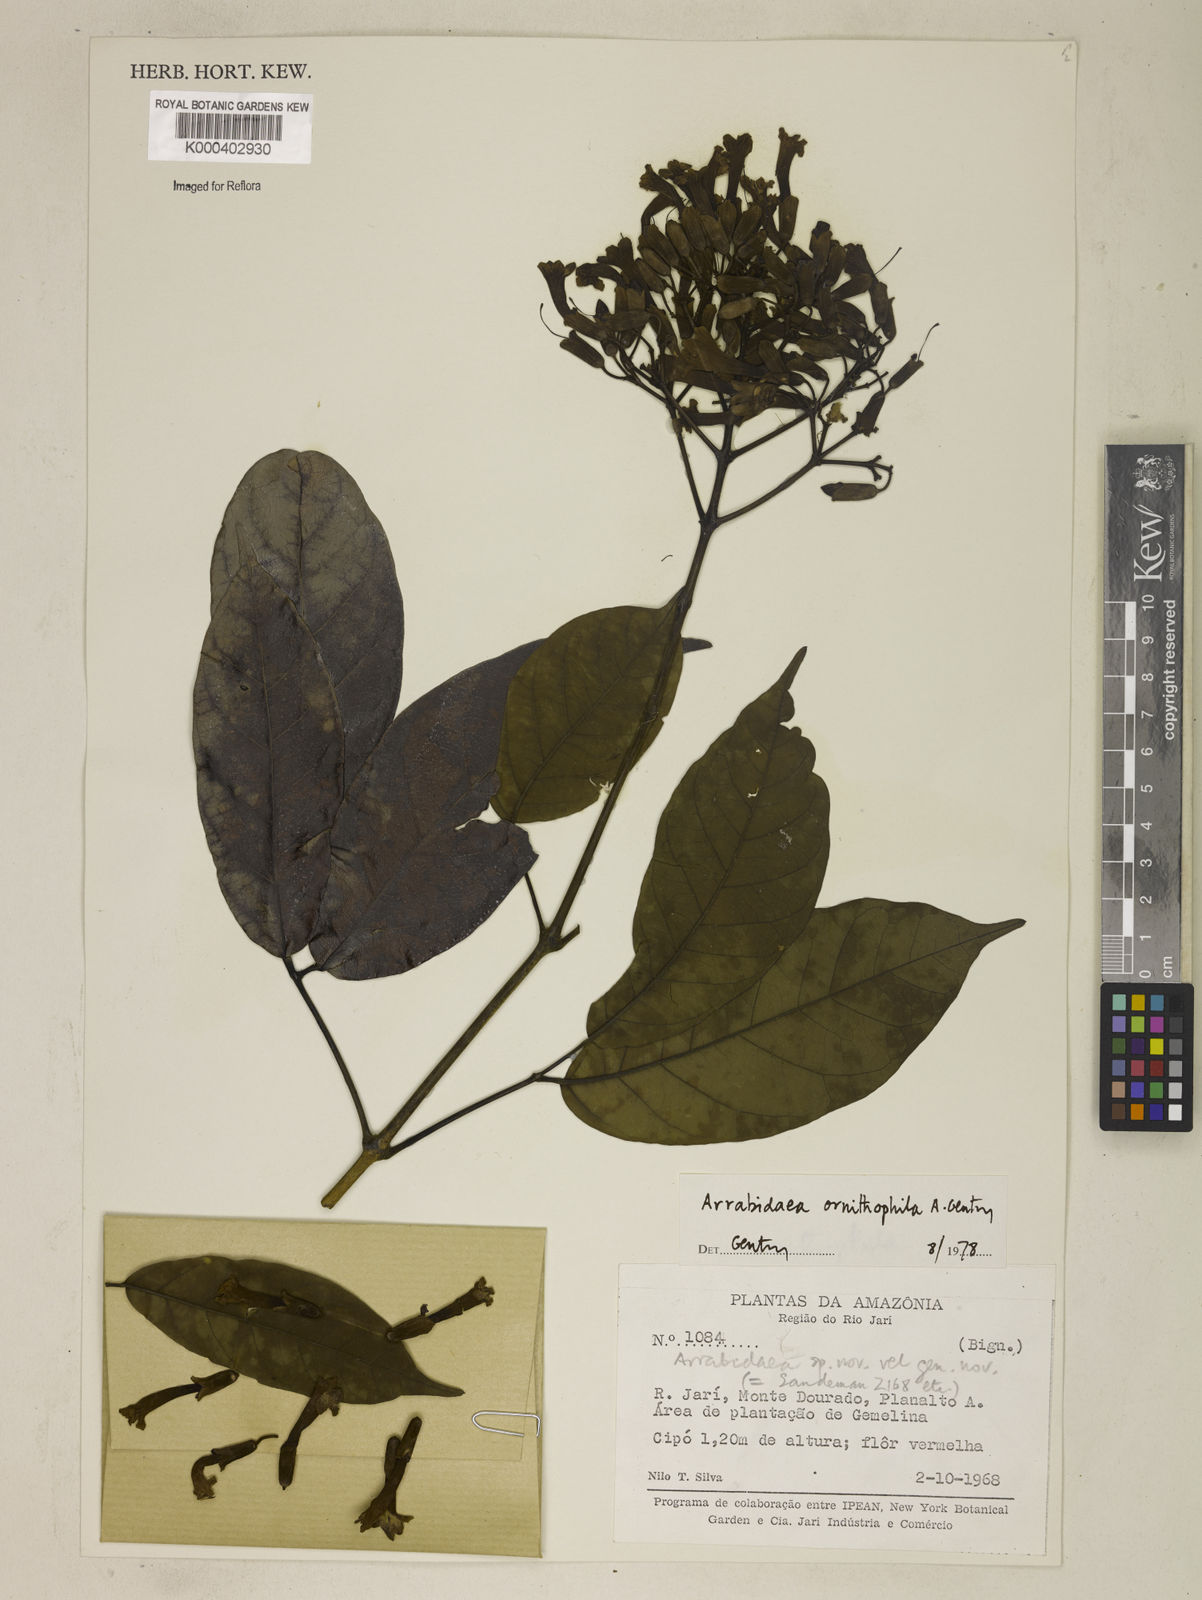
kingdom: Plantae
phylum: Tracheophyta
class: Magnoliopsida
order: Lamiales
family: Bignoniaceae
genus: Fridericia
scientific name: Fridericia ornithophila
